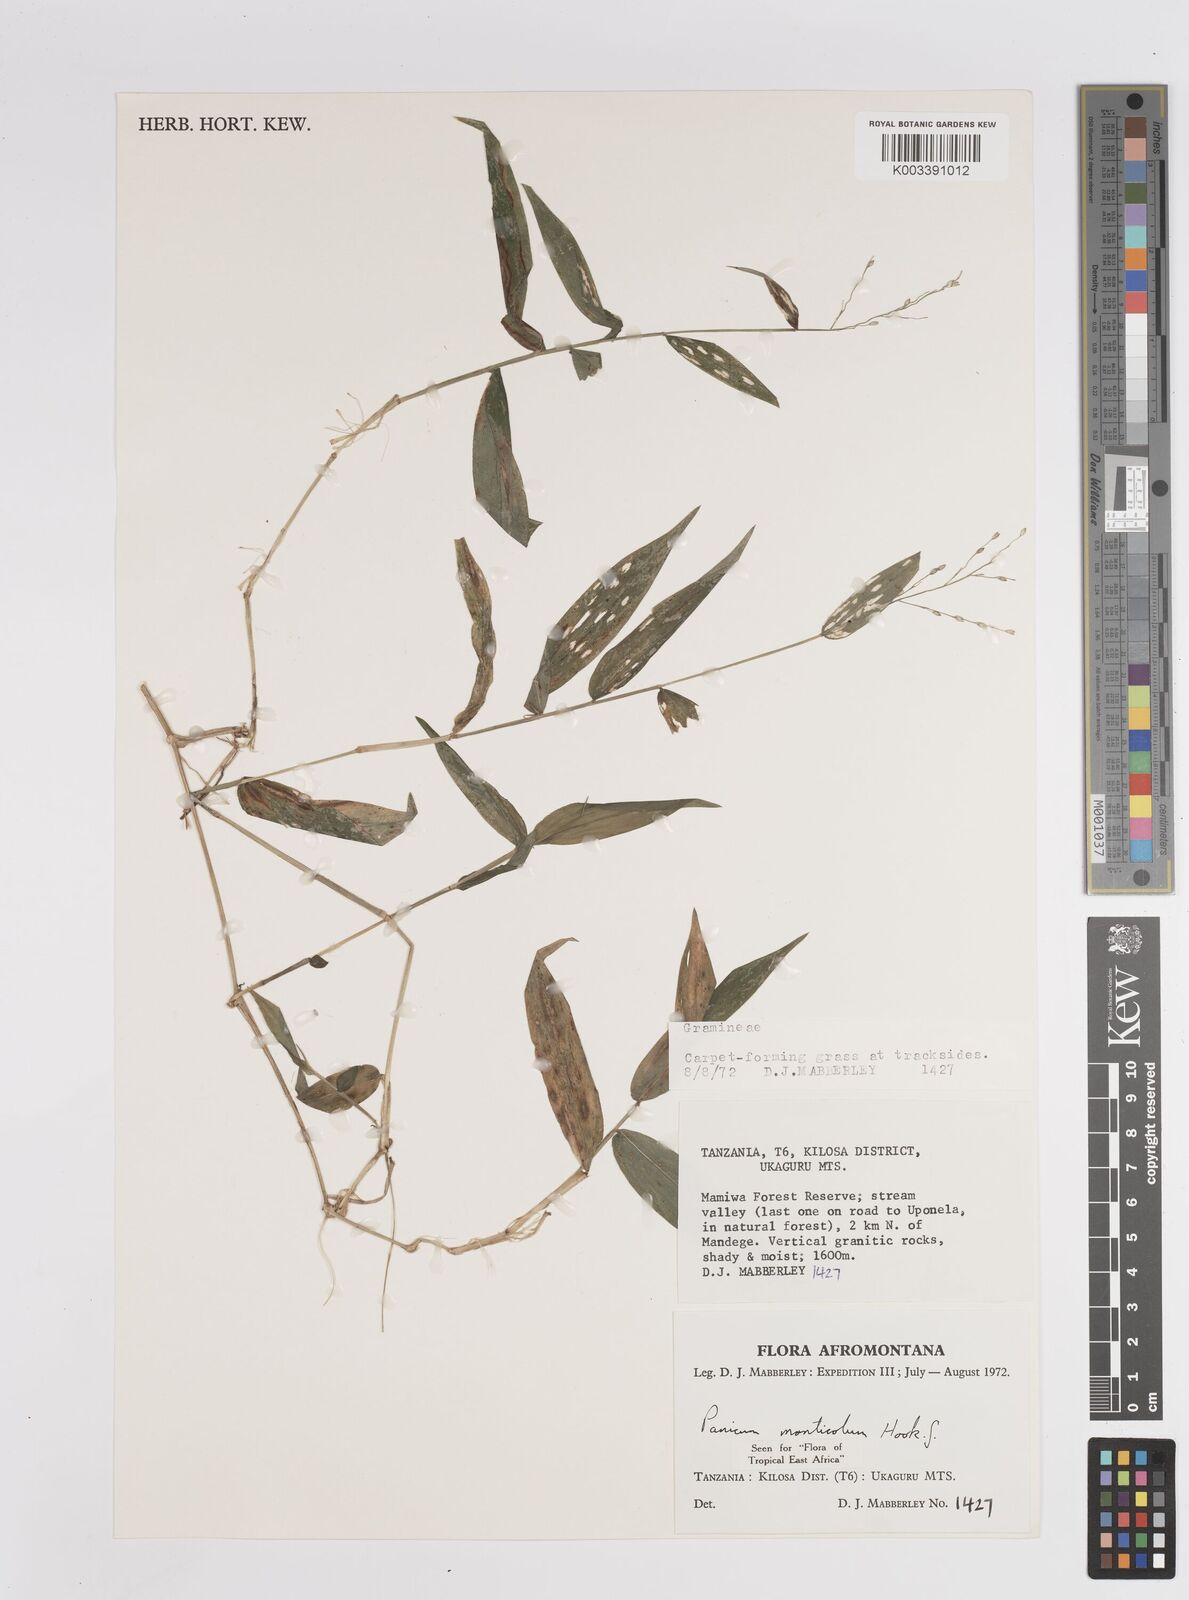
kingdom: Plantae
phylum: Tracheophyta
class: Liliopsida
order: Poales
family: Poaceae
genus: Panicum
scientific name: Panicum monticola
